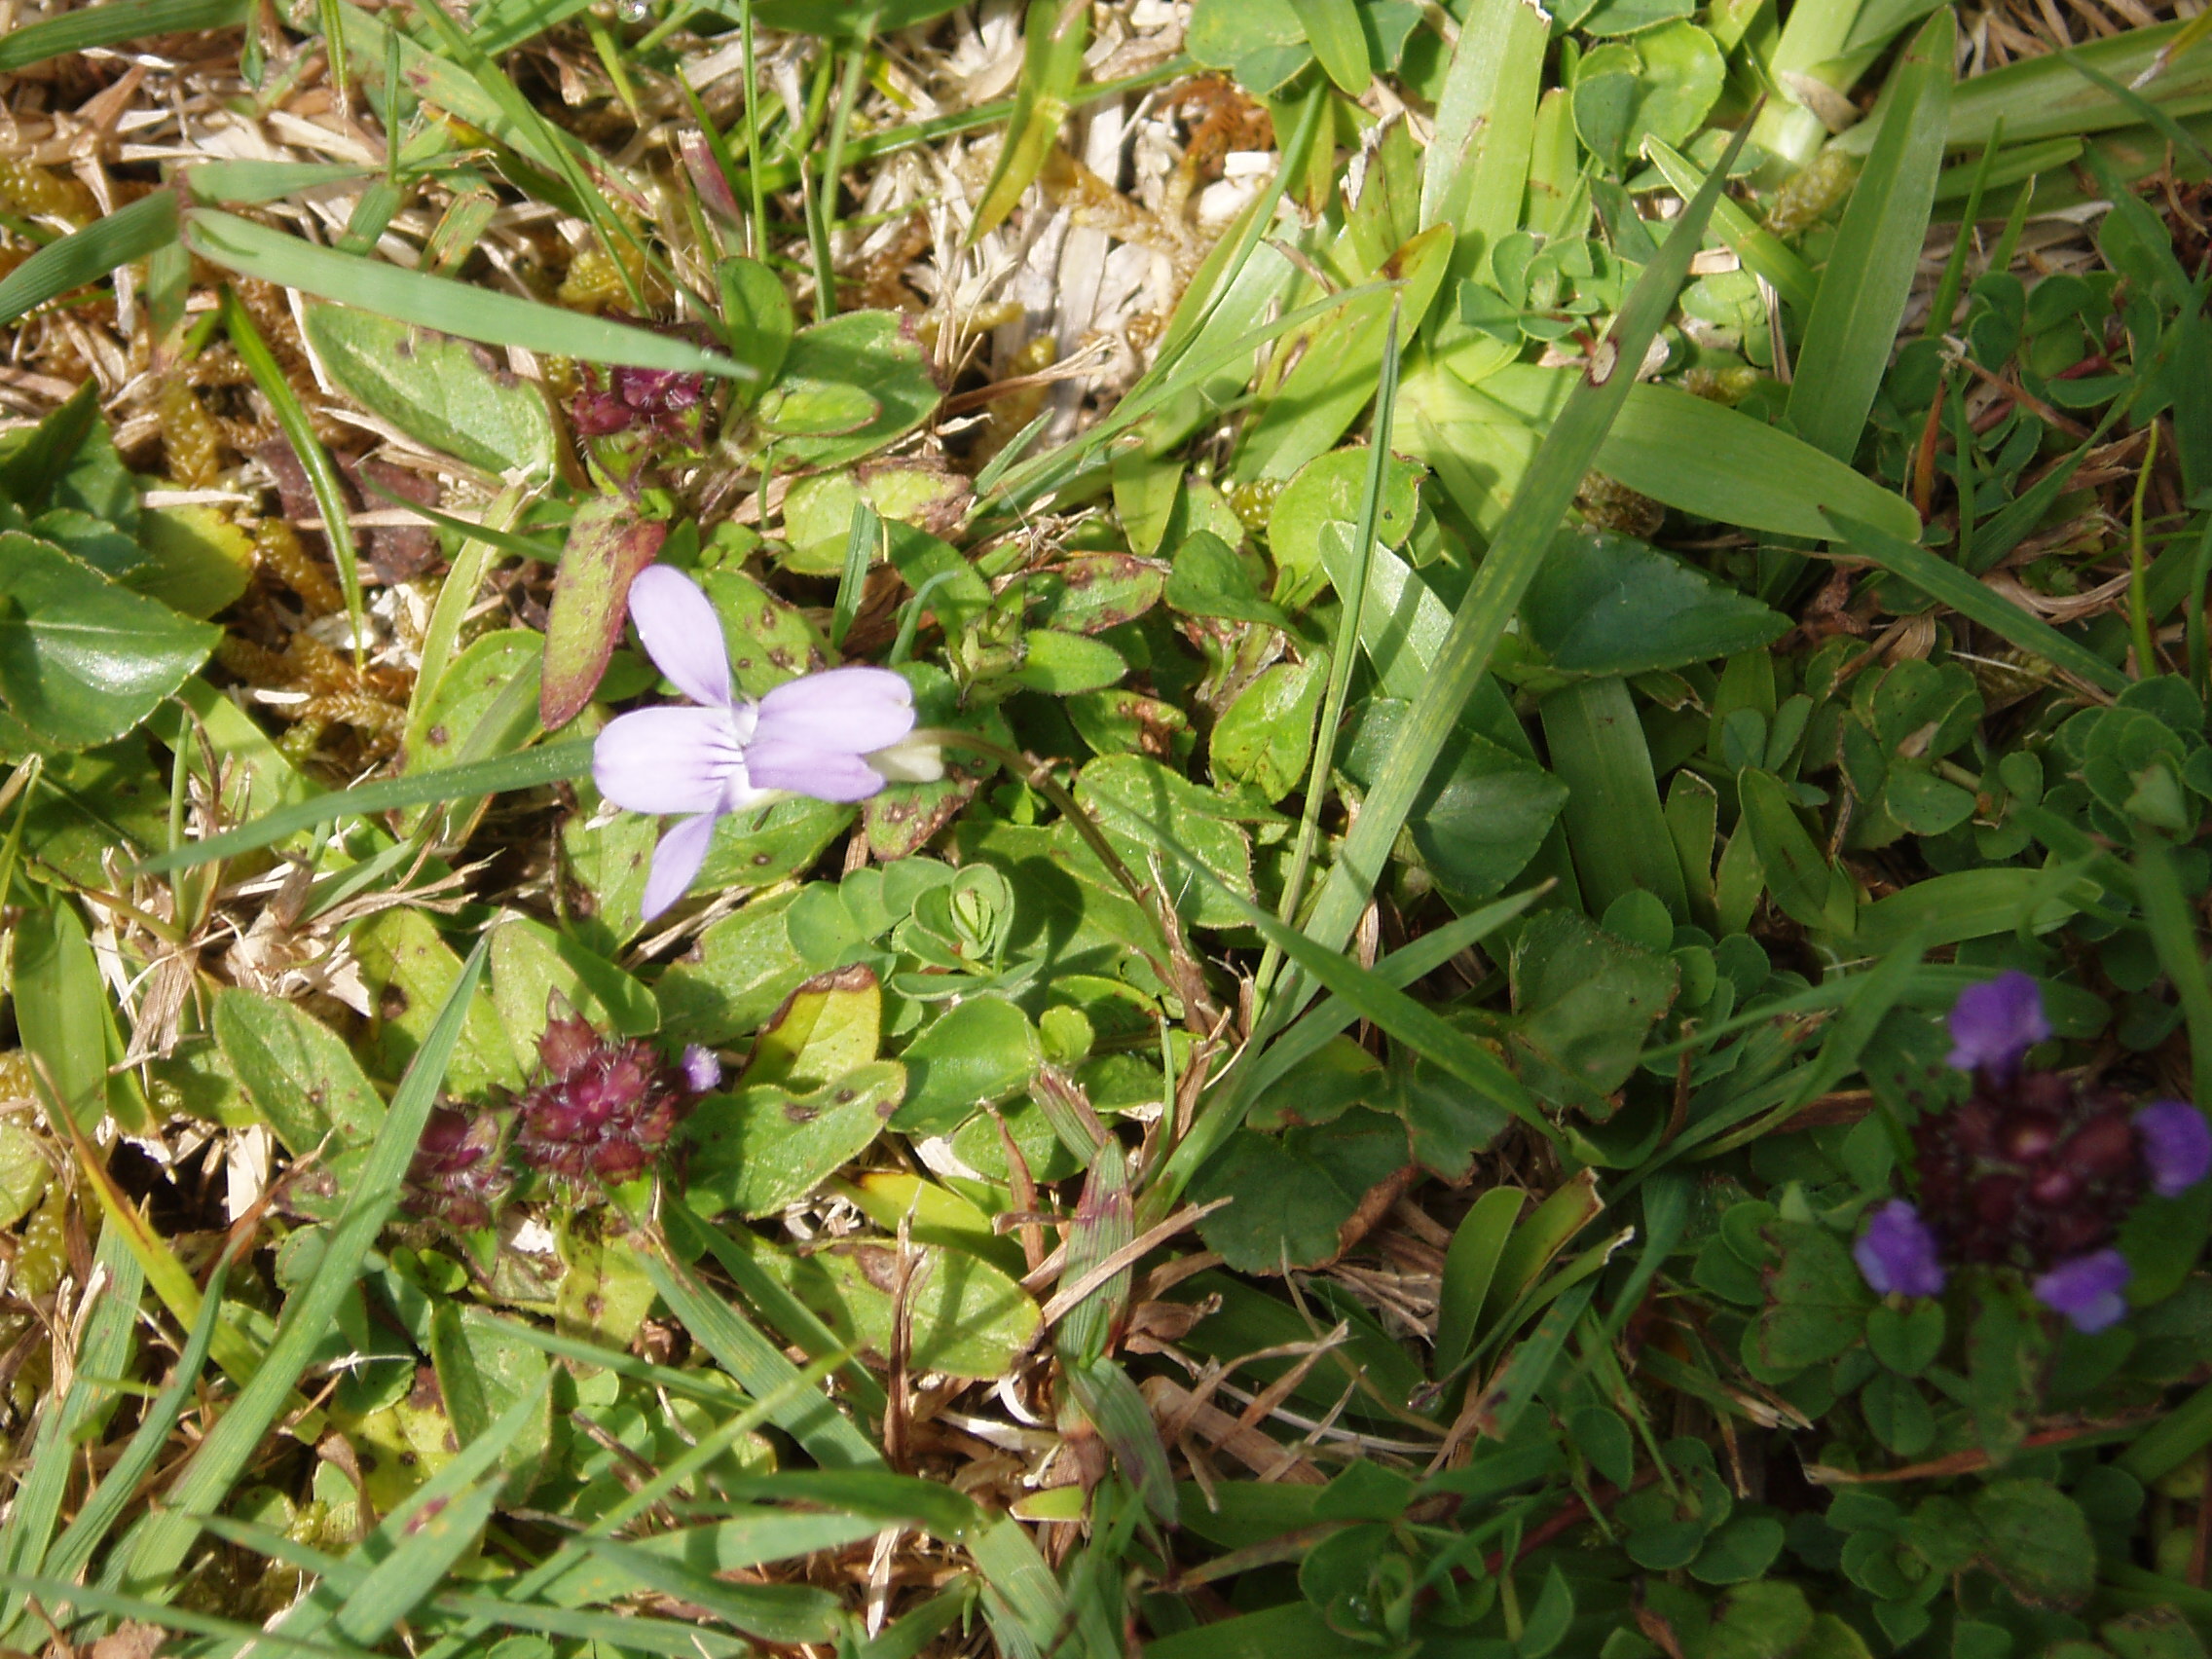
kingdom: Plantae
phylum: Tracheophyta
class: Magnoliopsida
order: Malpighiales
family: Violaceae
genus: Viola
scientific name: Viola riviniana
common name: Common dog-violet
